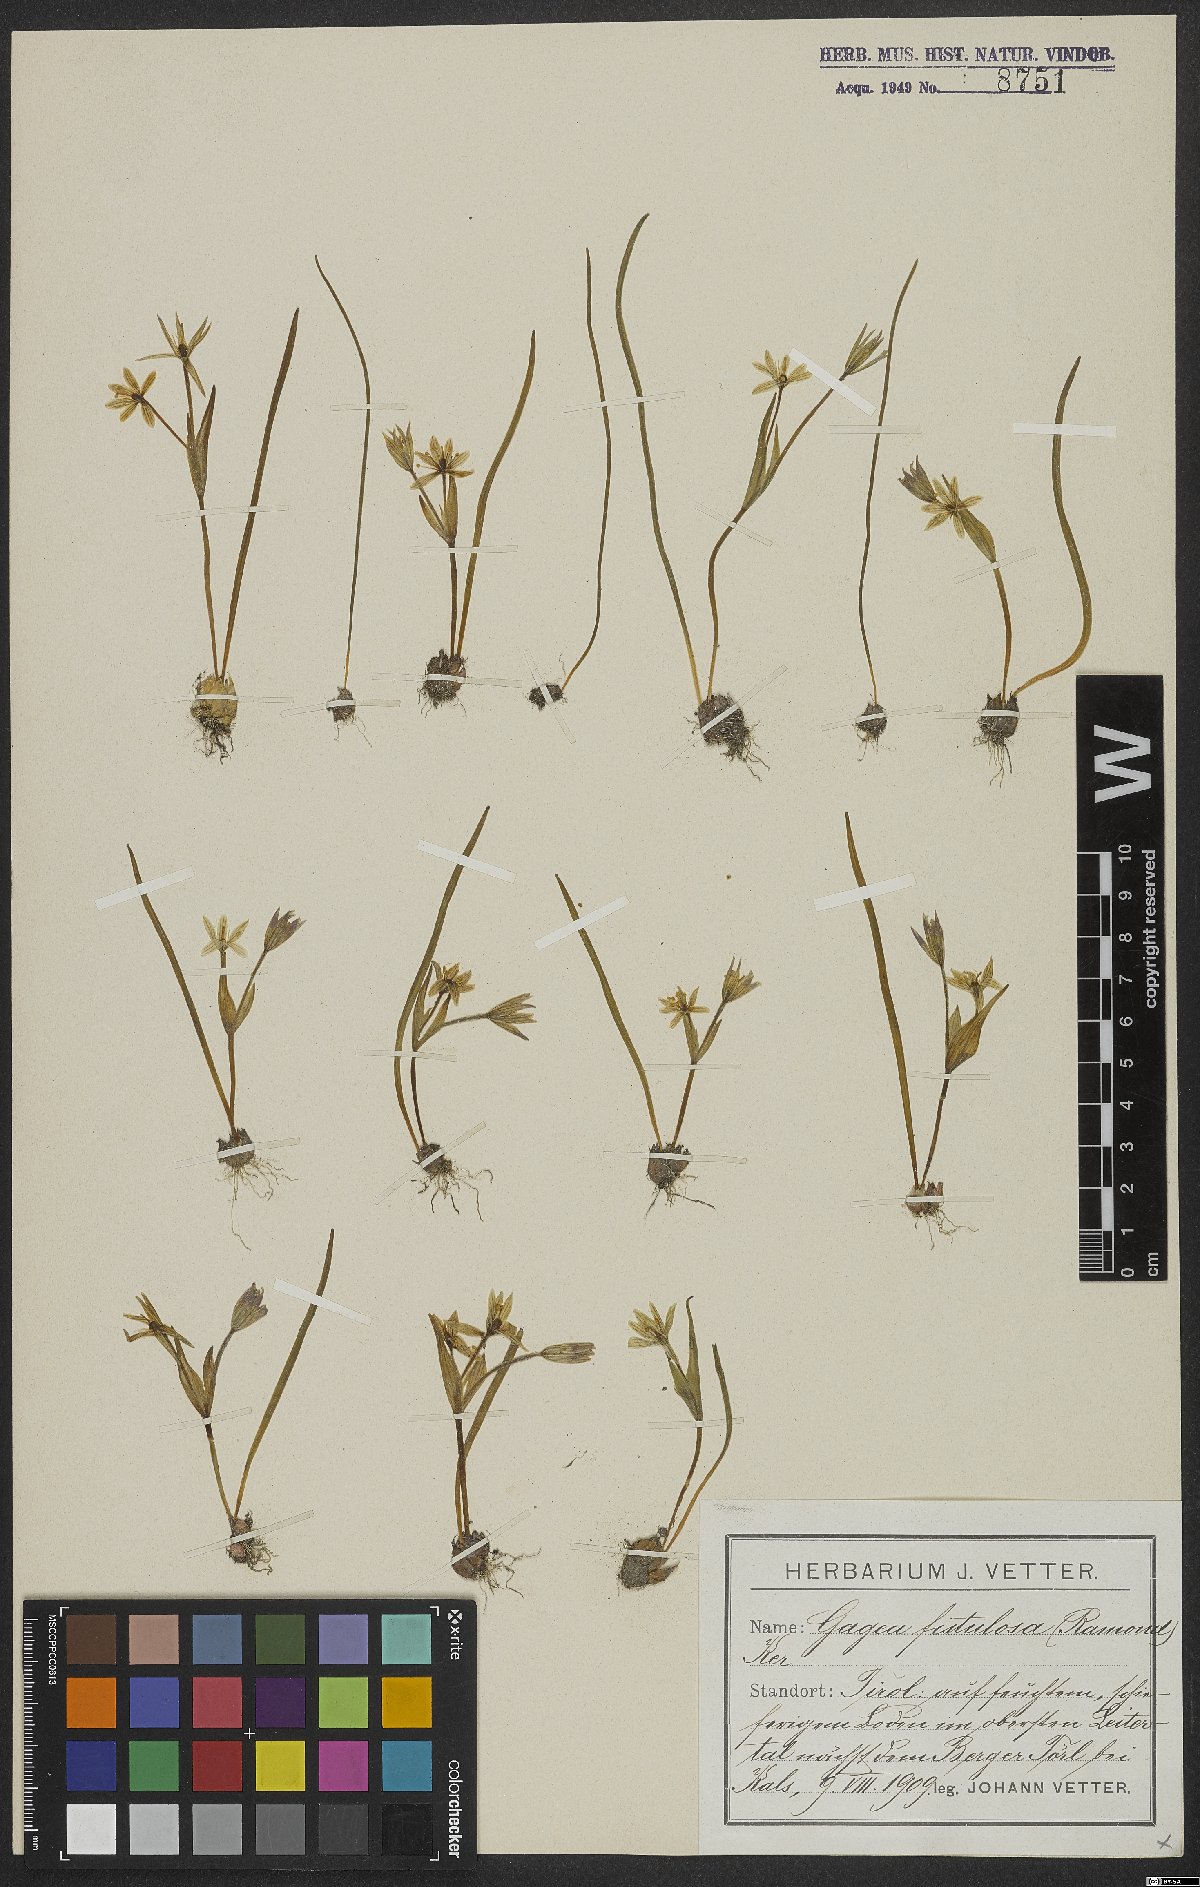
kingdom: Plantae
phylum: Tracheophyta
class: Liliopsida
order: Liliales
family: Liliaceae
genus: Gagea
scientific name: Gagea fragifera
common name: Lily
